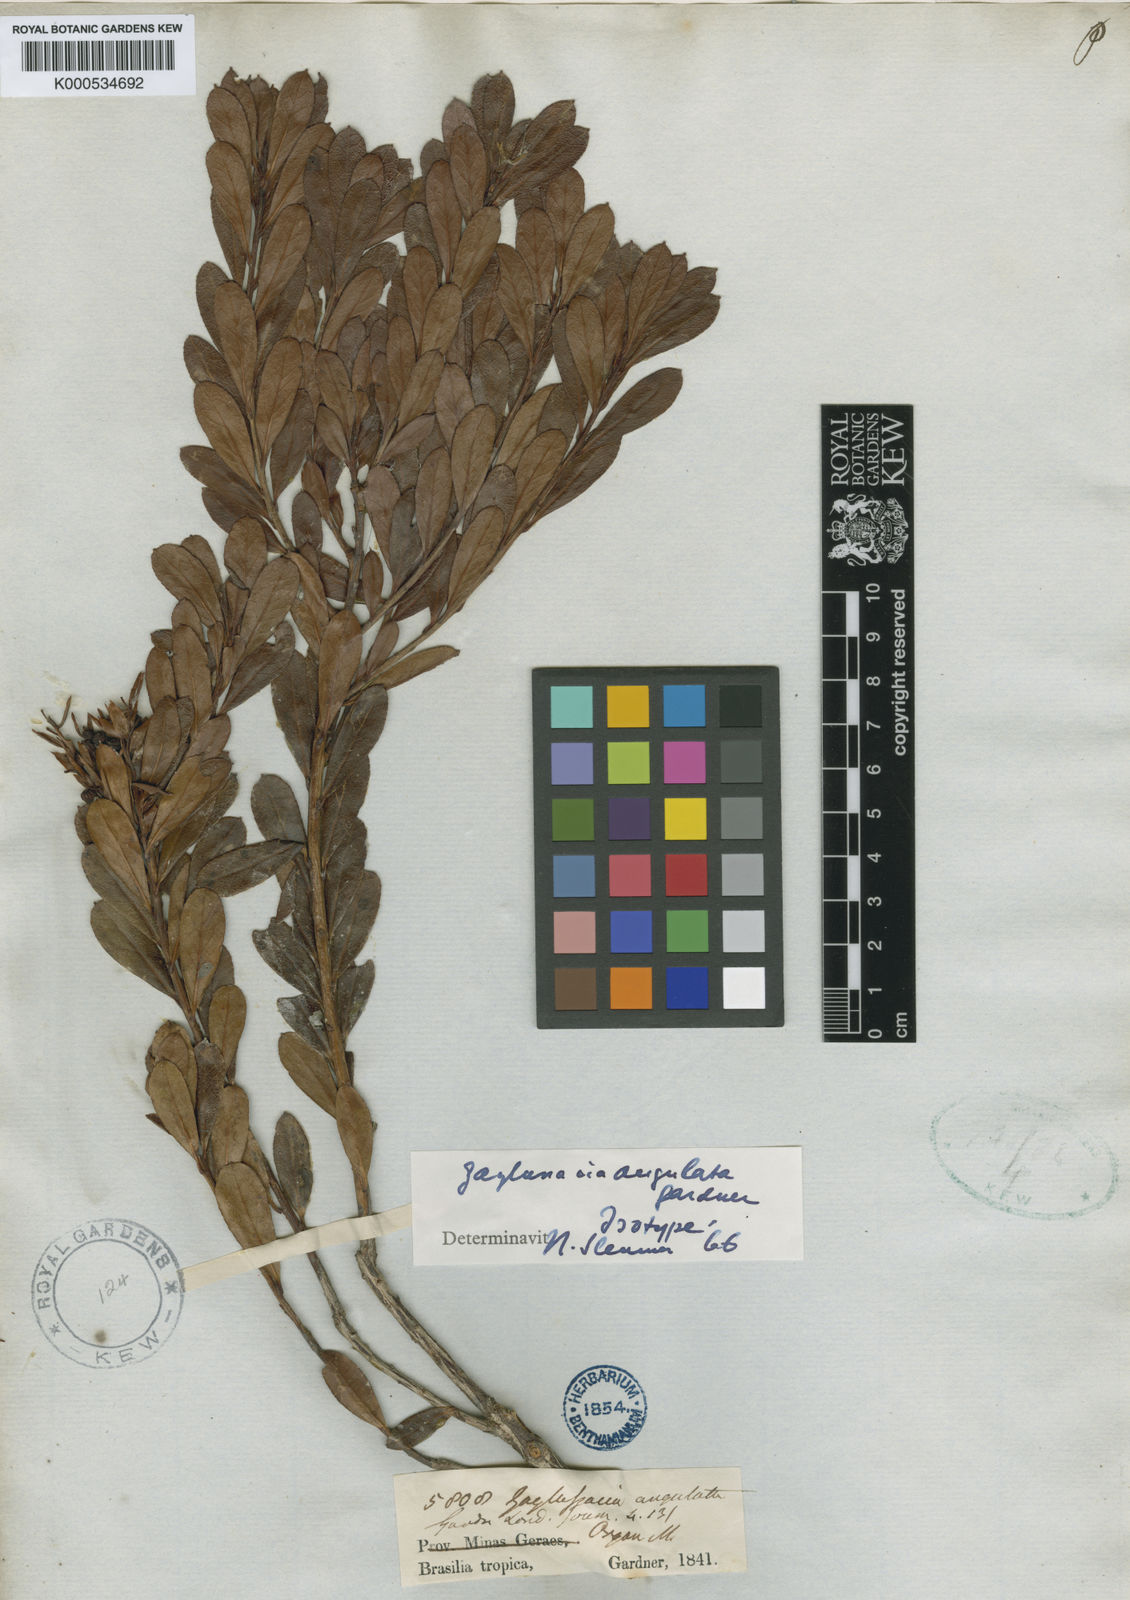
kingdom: Plantae
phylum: Tracheophyta
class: Magnoliopsida
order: Ericales
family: Ericaceae
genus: Gaylussacia
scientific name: Gaylussacia angulata
